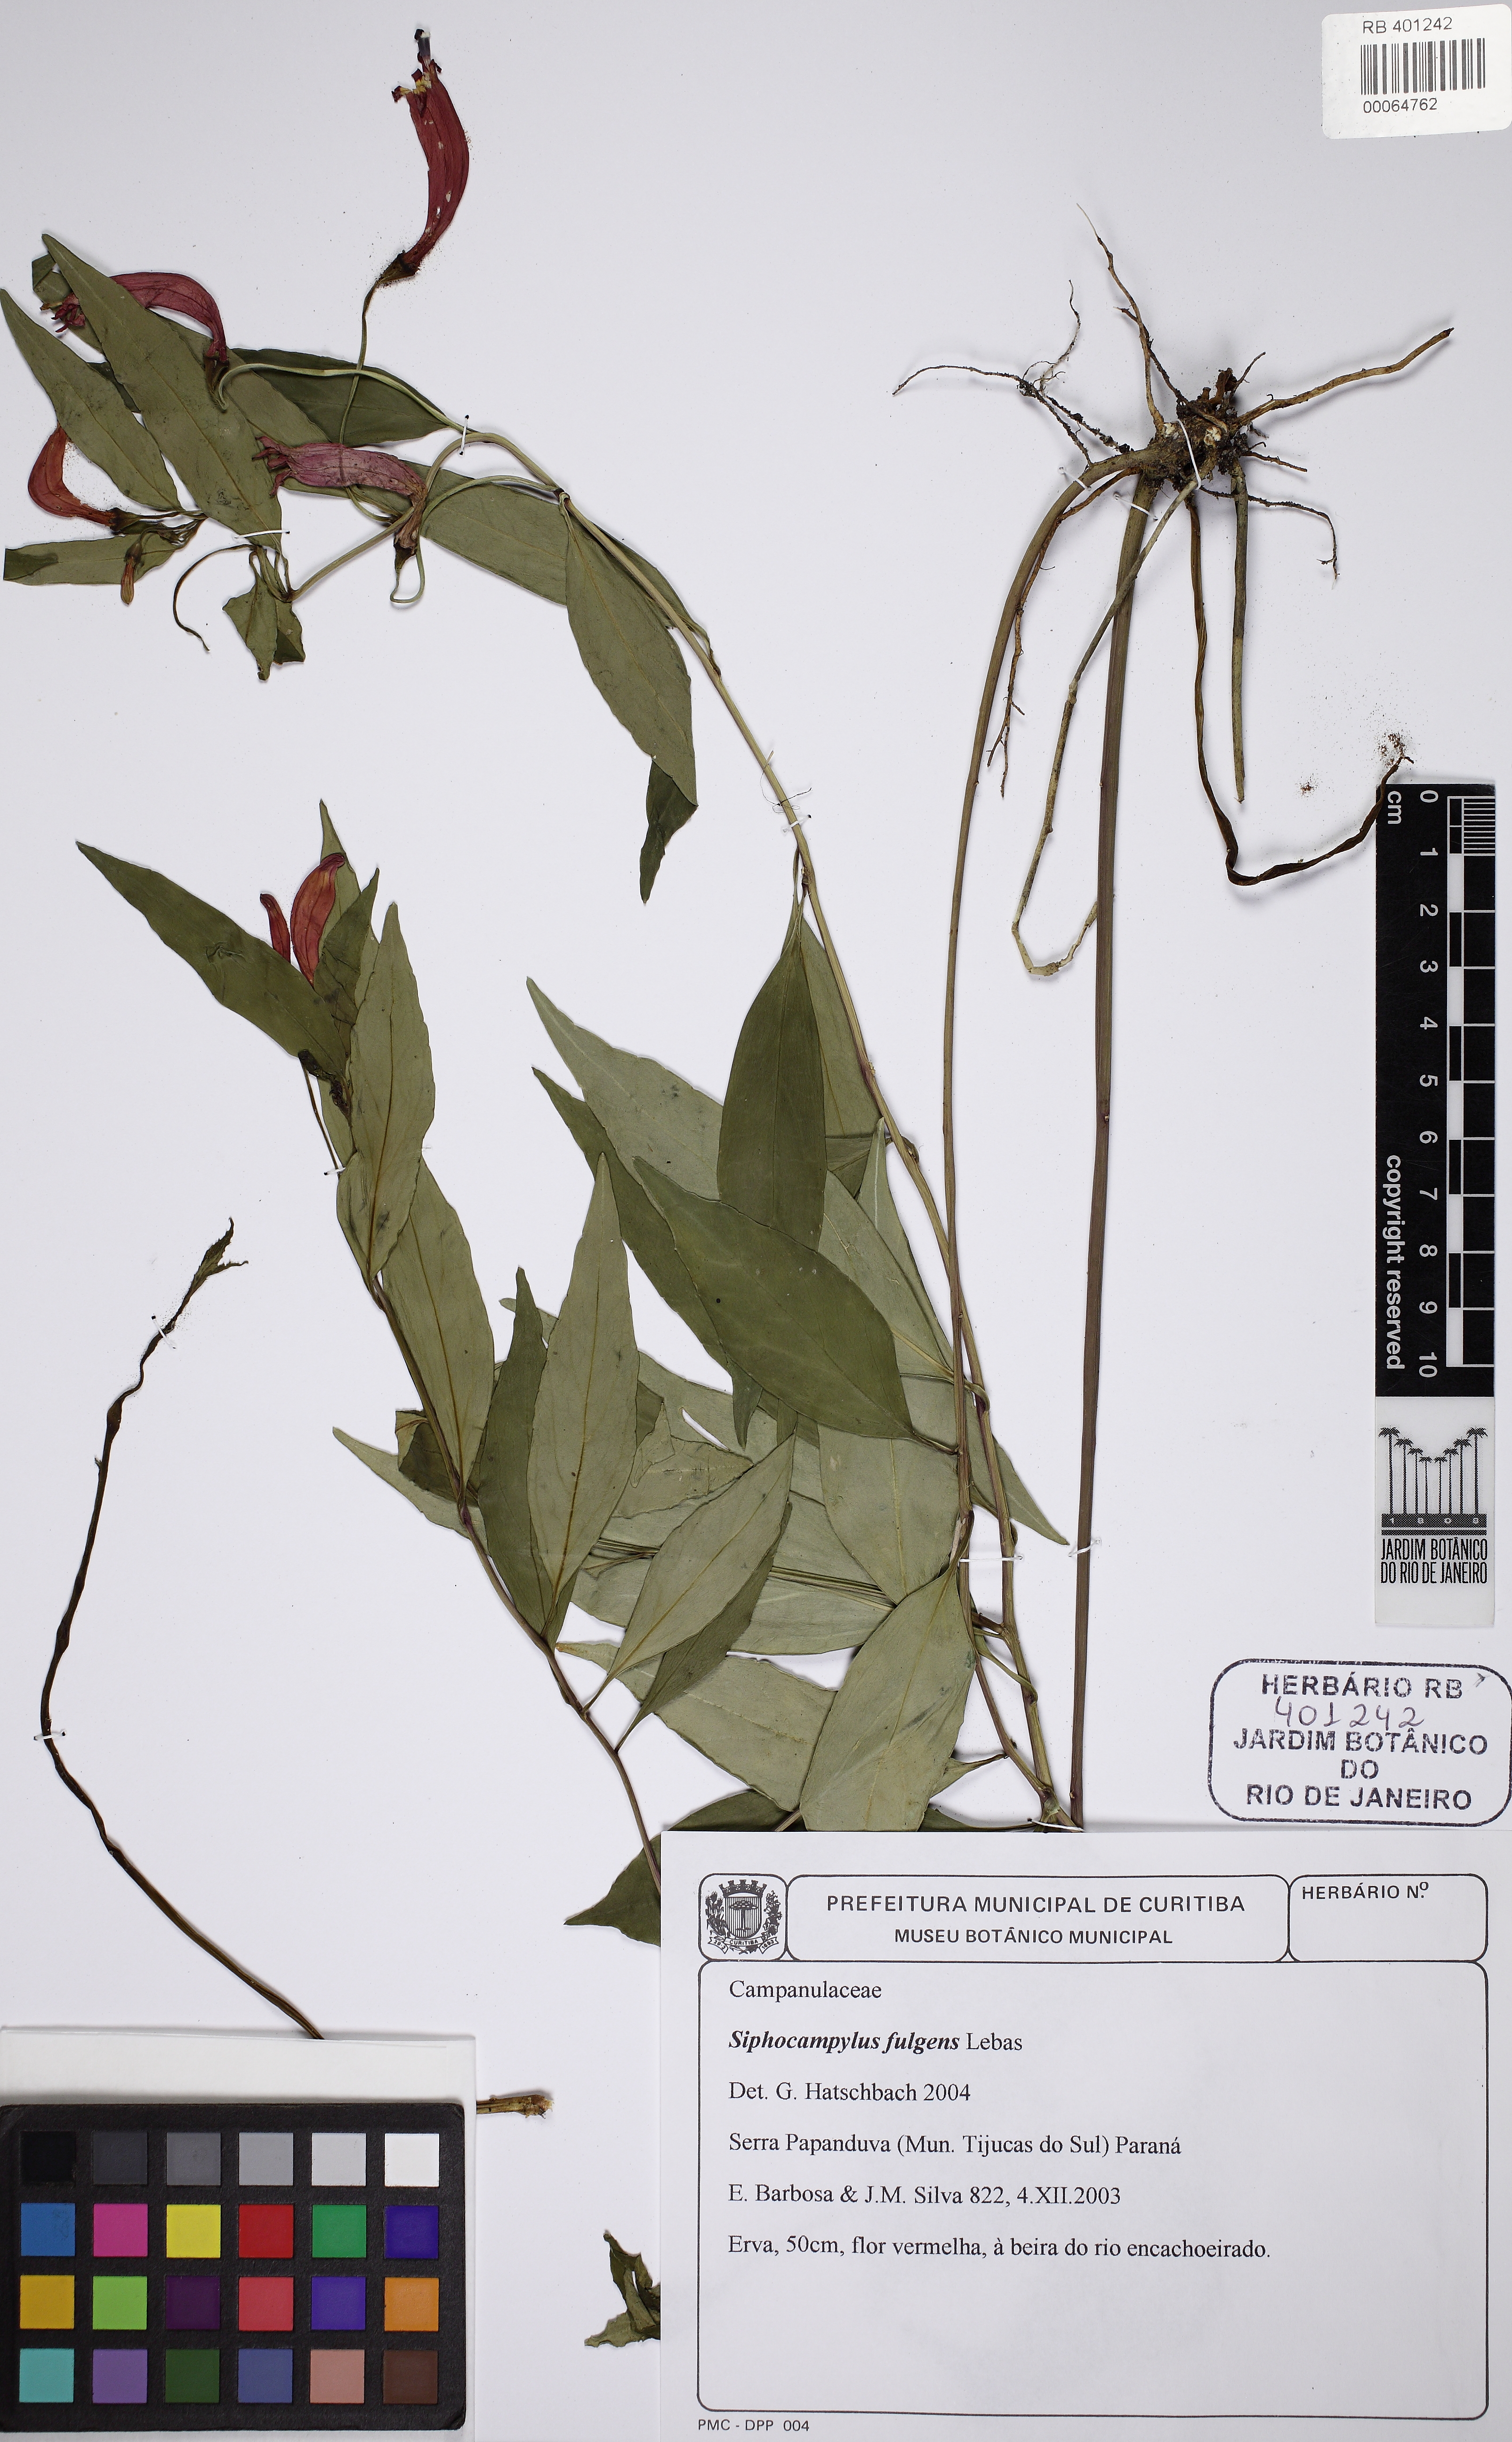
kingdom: Plantae
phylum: Tracheophyta
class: Magnoliopsida
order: Asterales
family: Campanulaceae
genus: Siphocampylus
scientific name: Siphocampylus fulgens
